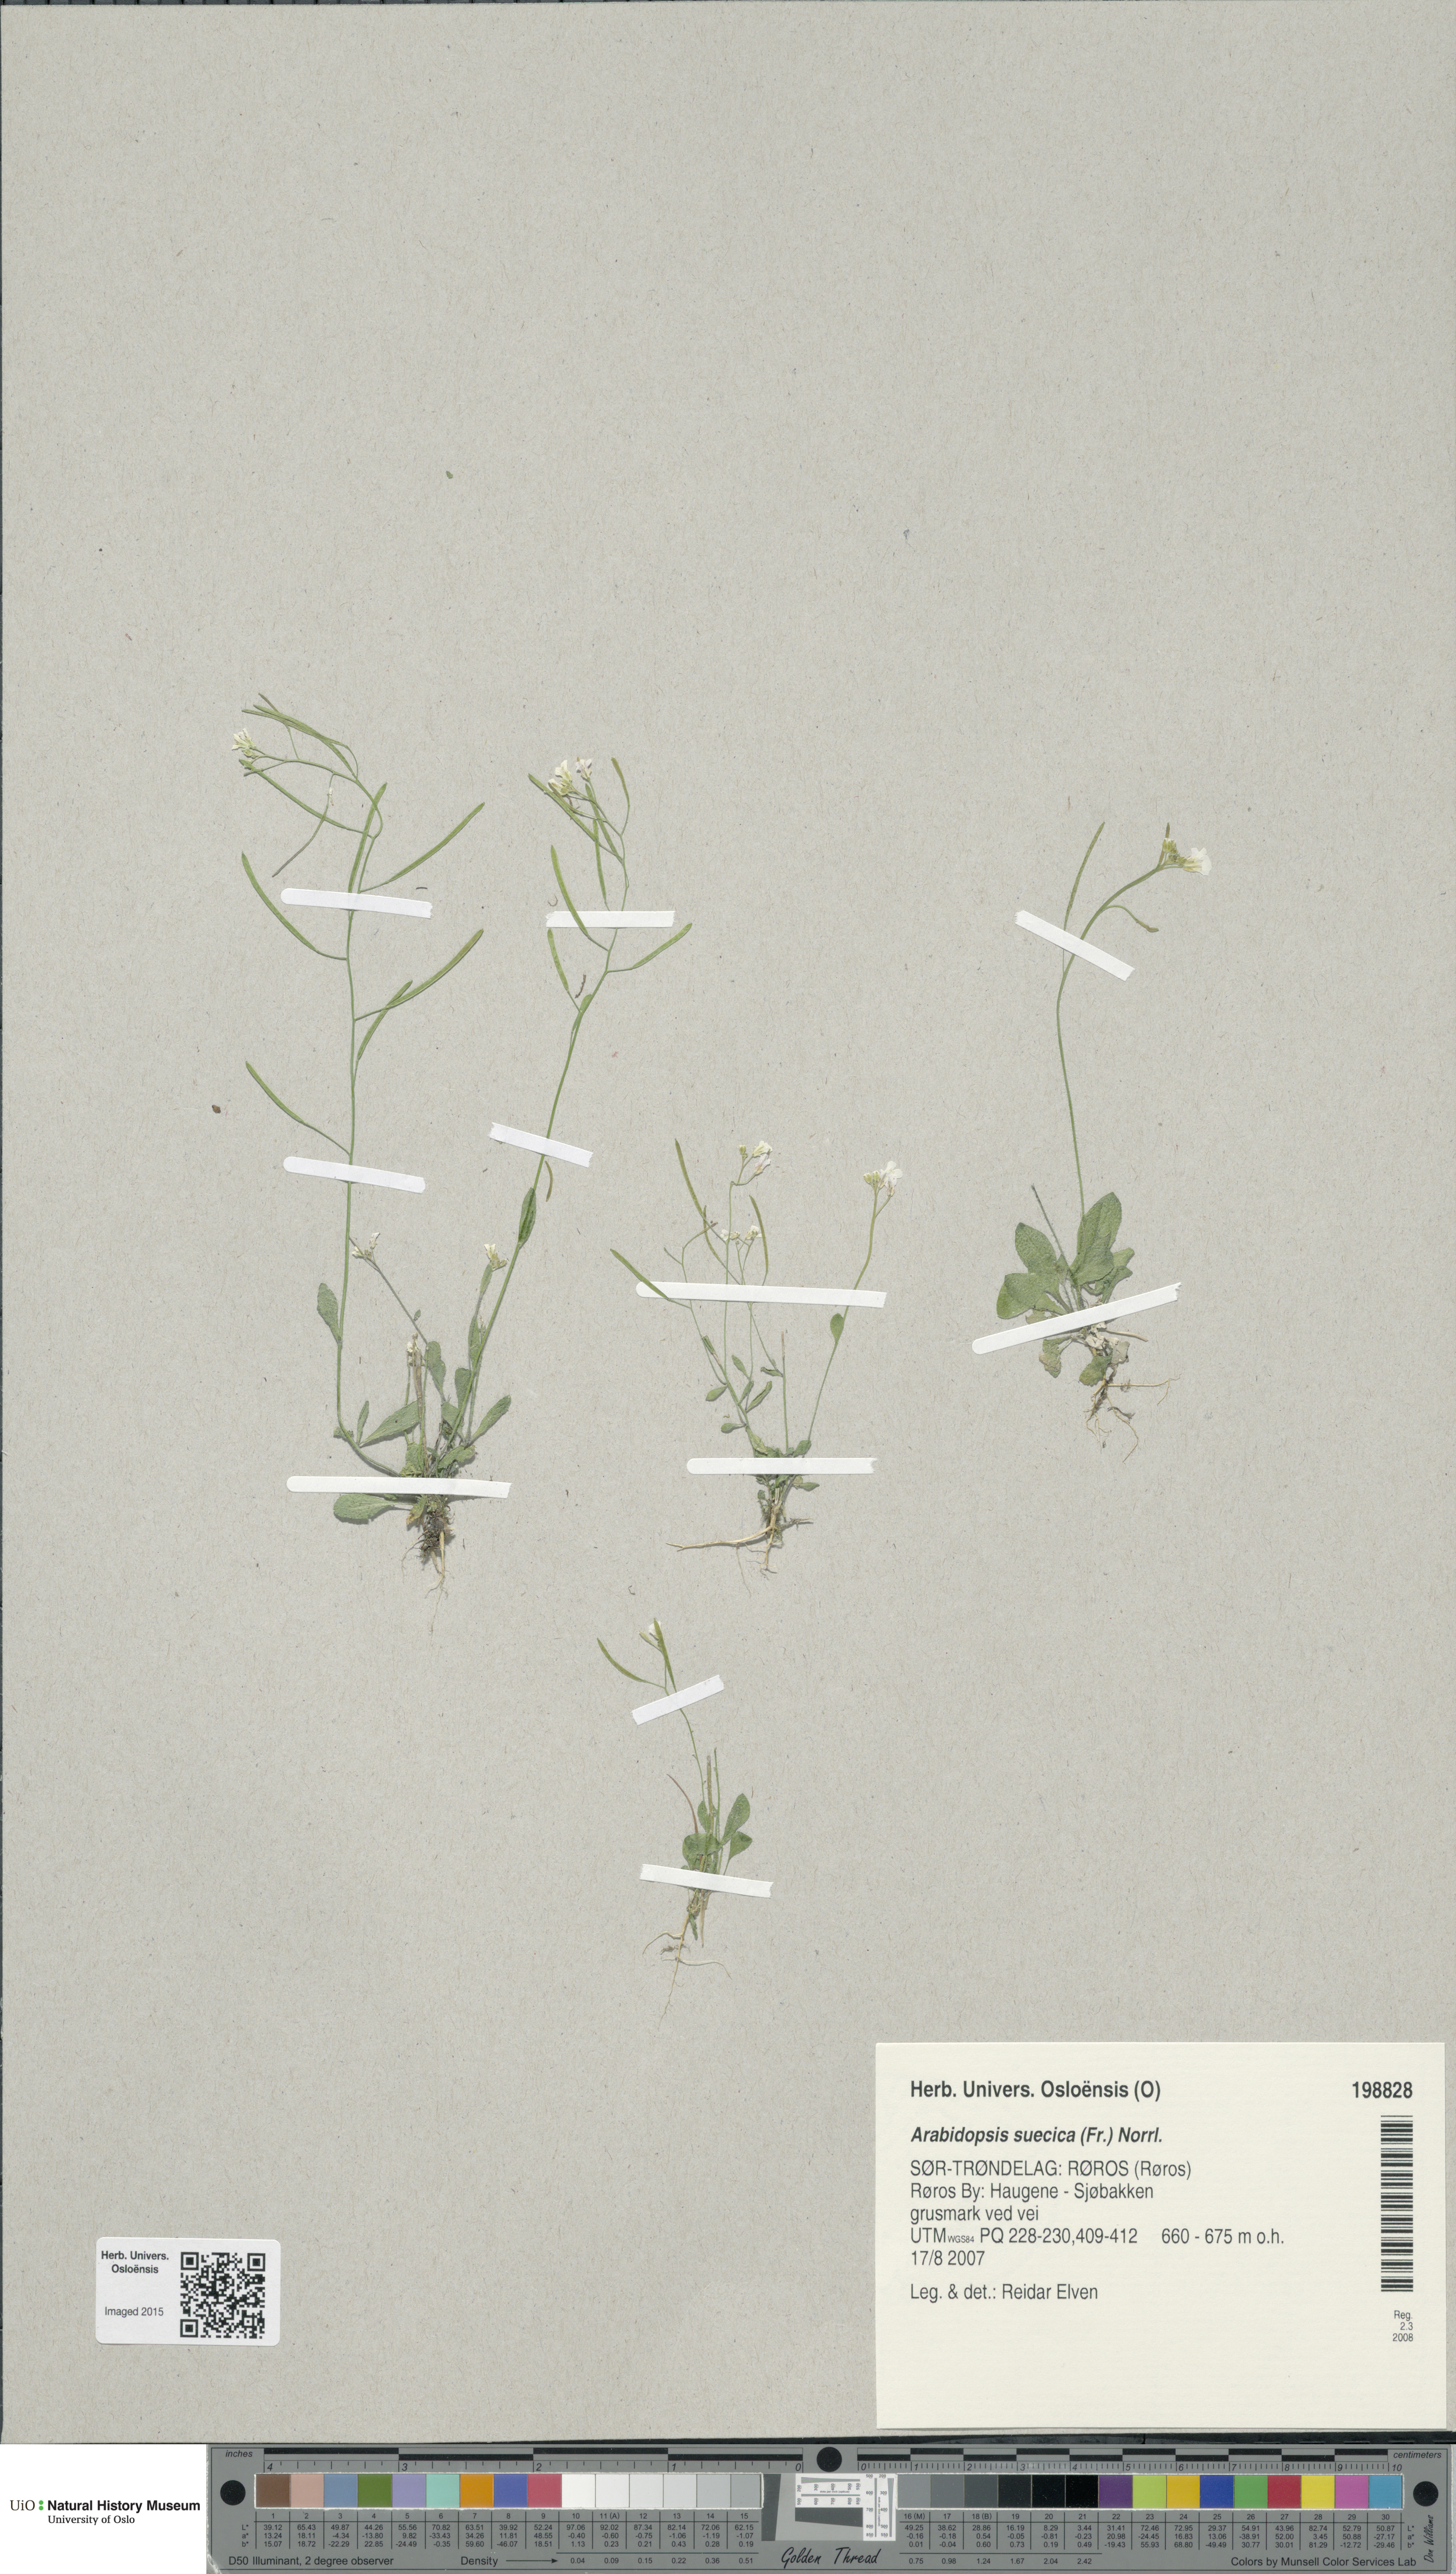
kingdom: Plantae
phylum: Tracheophyta
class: Magnoliopsida
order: Brassicales
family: Brassicaceae
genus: Arabidopsis
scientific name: Arabidopsis suecica
